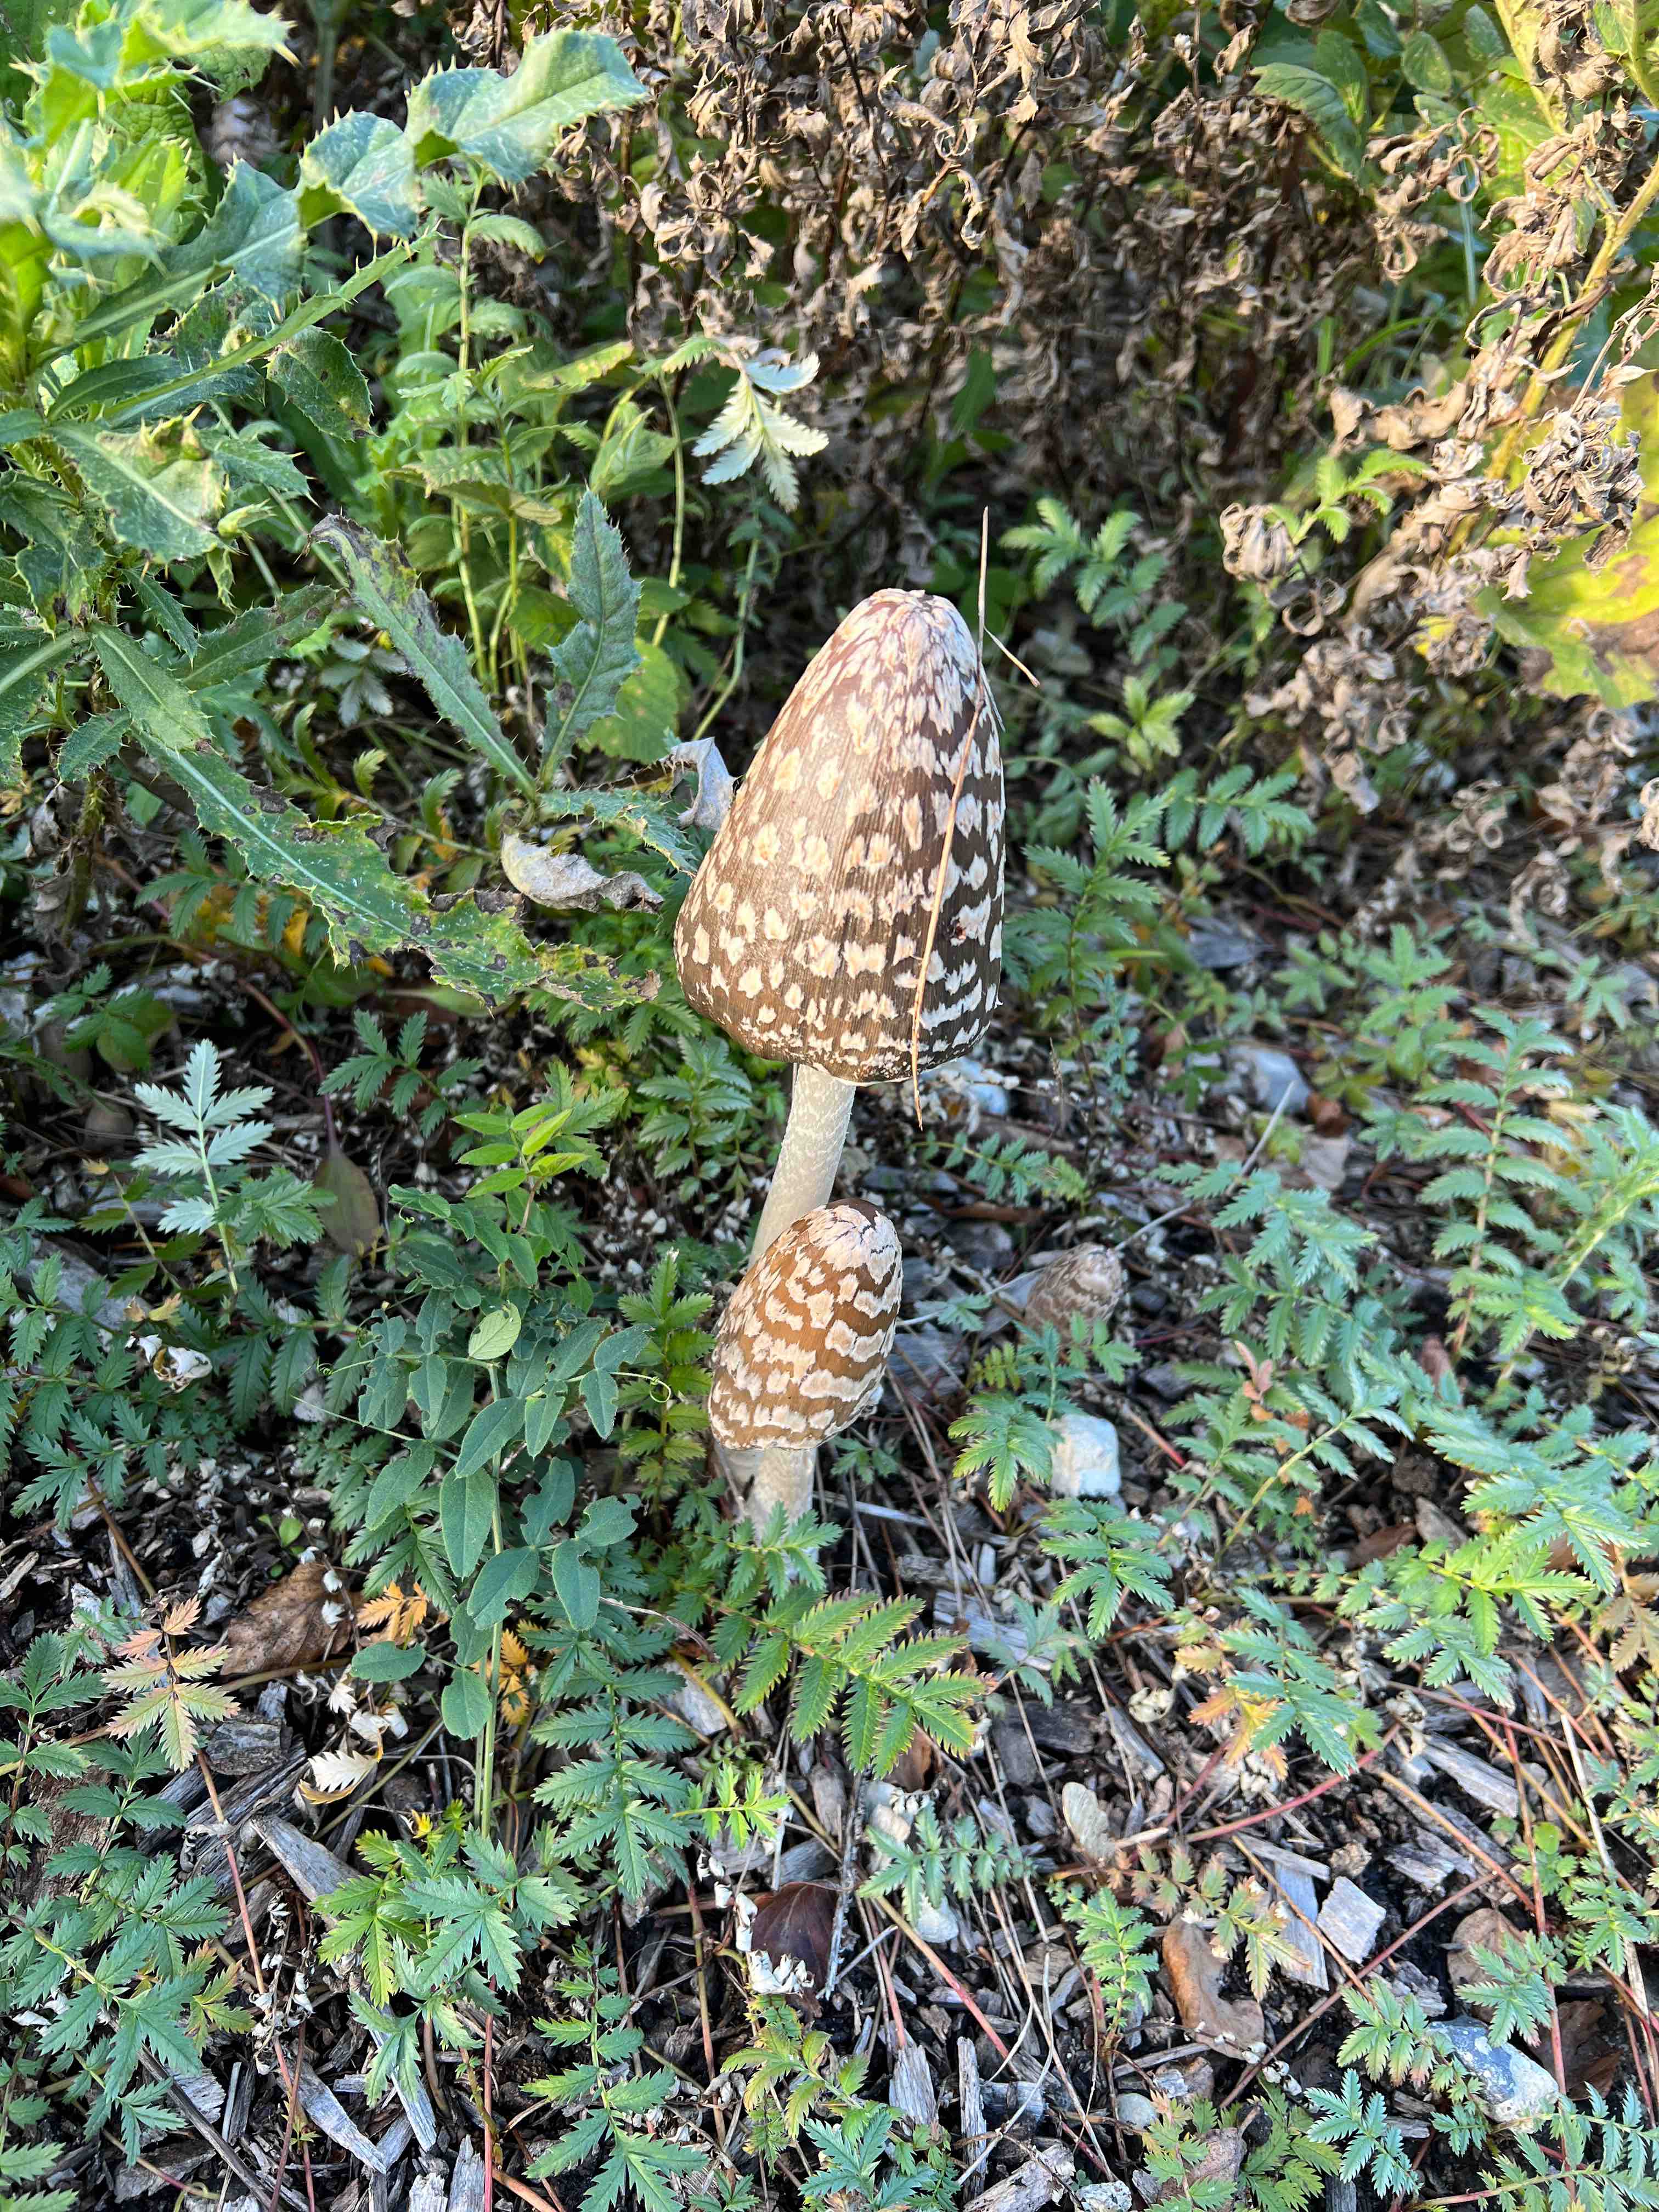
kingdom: Fungi
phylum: Basidiomycota
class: Agaricomycetes
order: Agaricales
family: Psathyrellaceae
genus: Coprinopsis
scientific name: Coprinopsis picacea
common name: skade-blækhat
